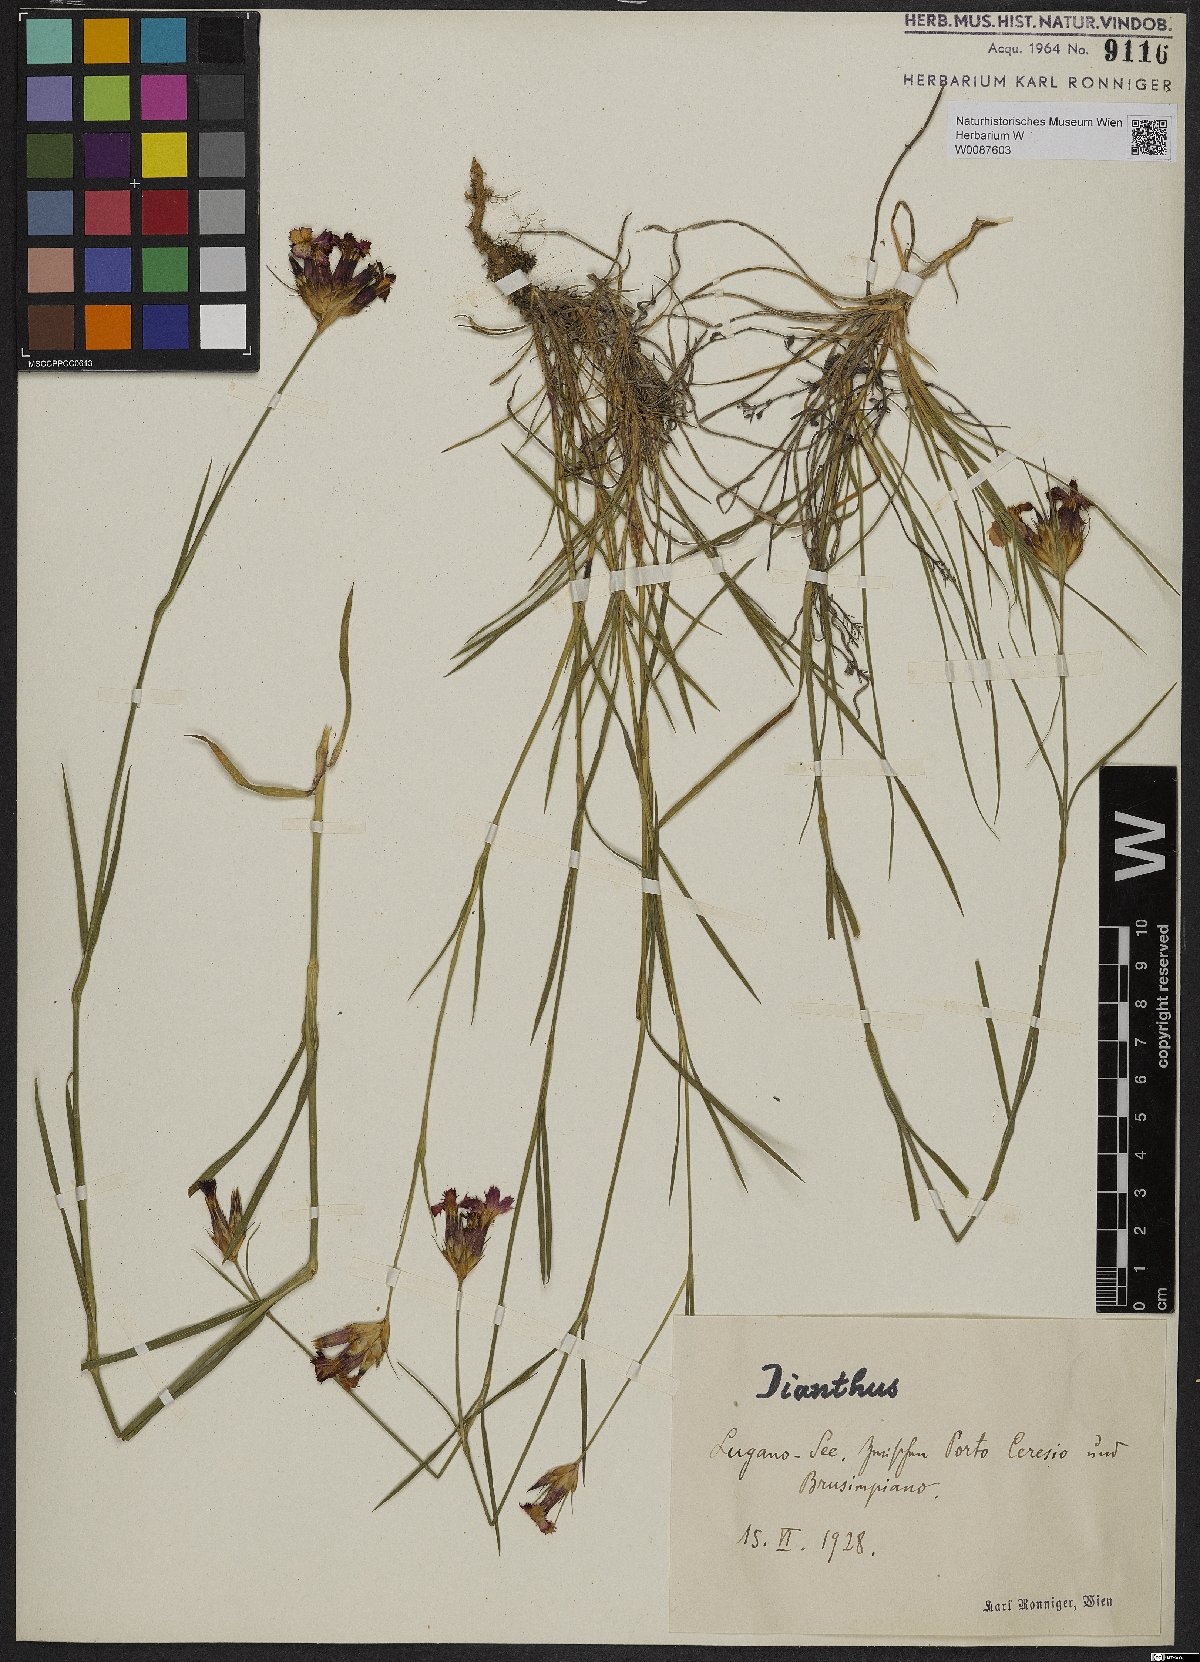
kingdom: Plantae
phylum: Tracheophyta
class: Magnoliopsida
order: Caryophyllales
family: Caryophyllaceae
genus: Dianthus
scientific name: Dianthus
